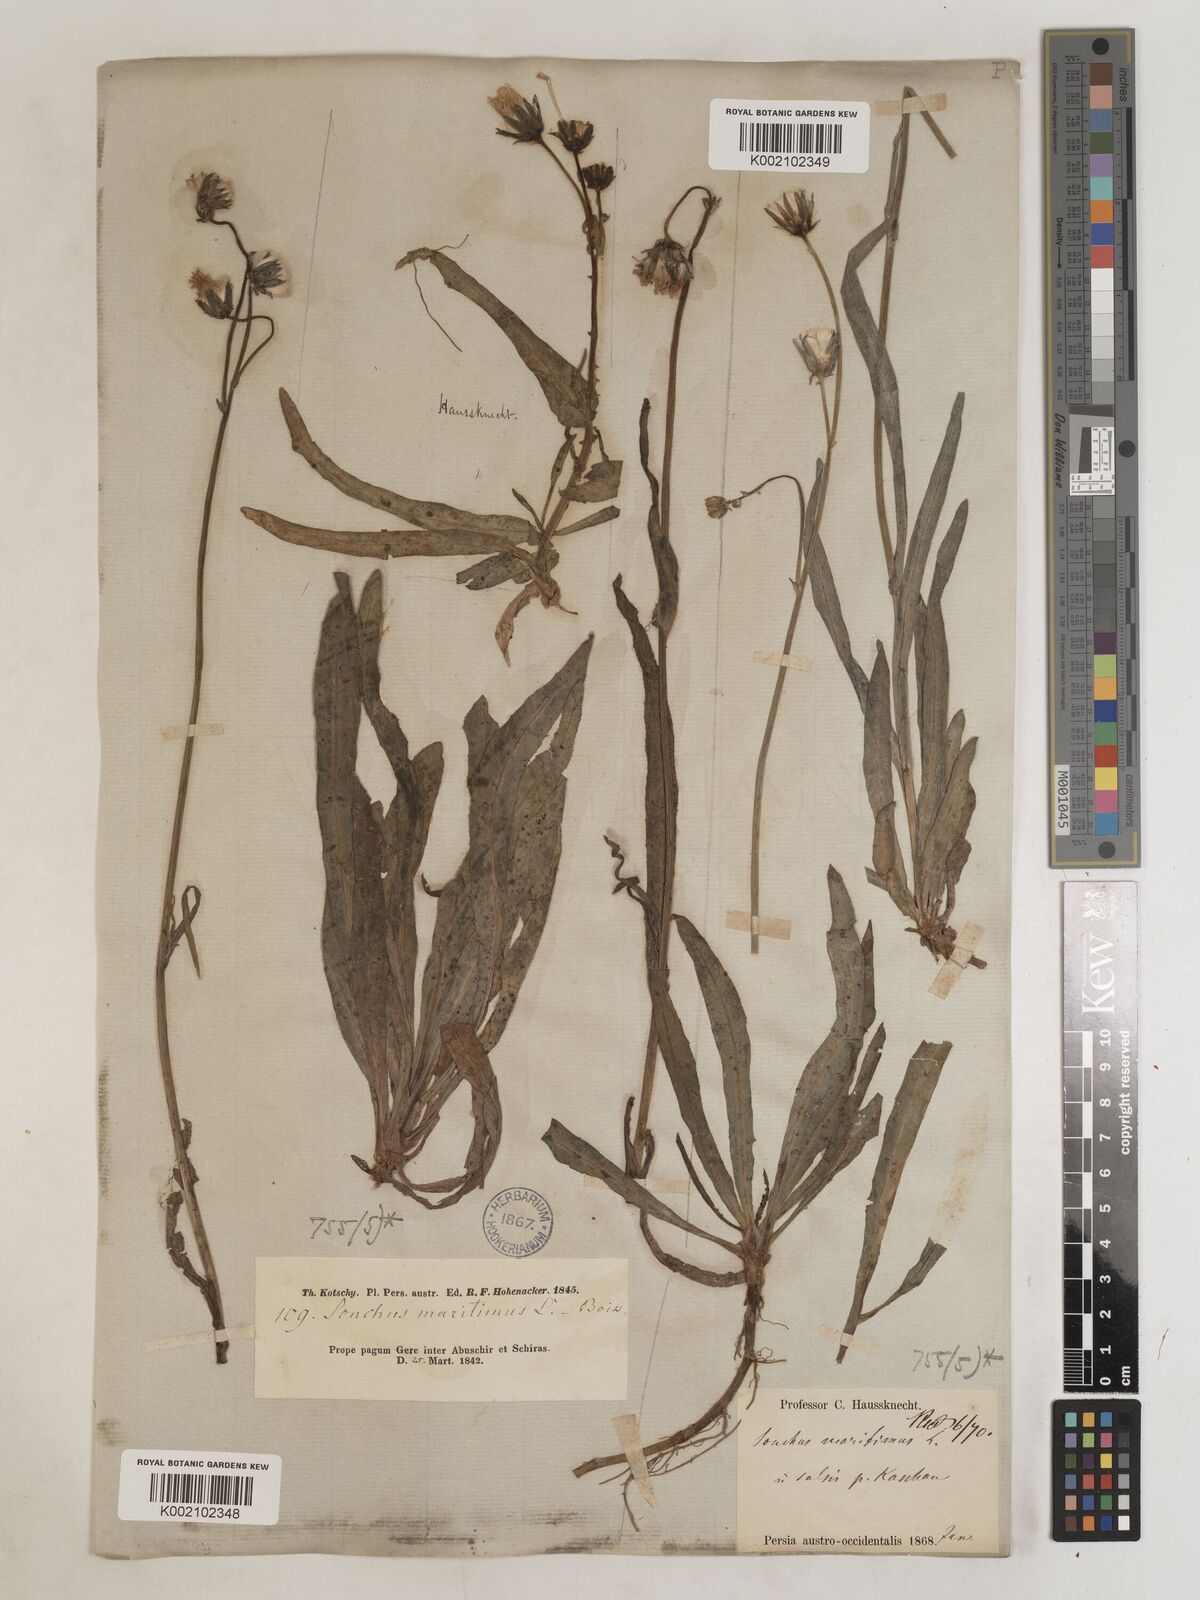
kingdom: Plantae
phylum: Tracheophyta
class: Magnoliopsida
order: Asterales
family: Asteraceae
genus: Sonchus
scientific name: Sonchus maritimus
